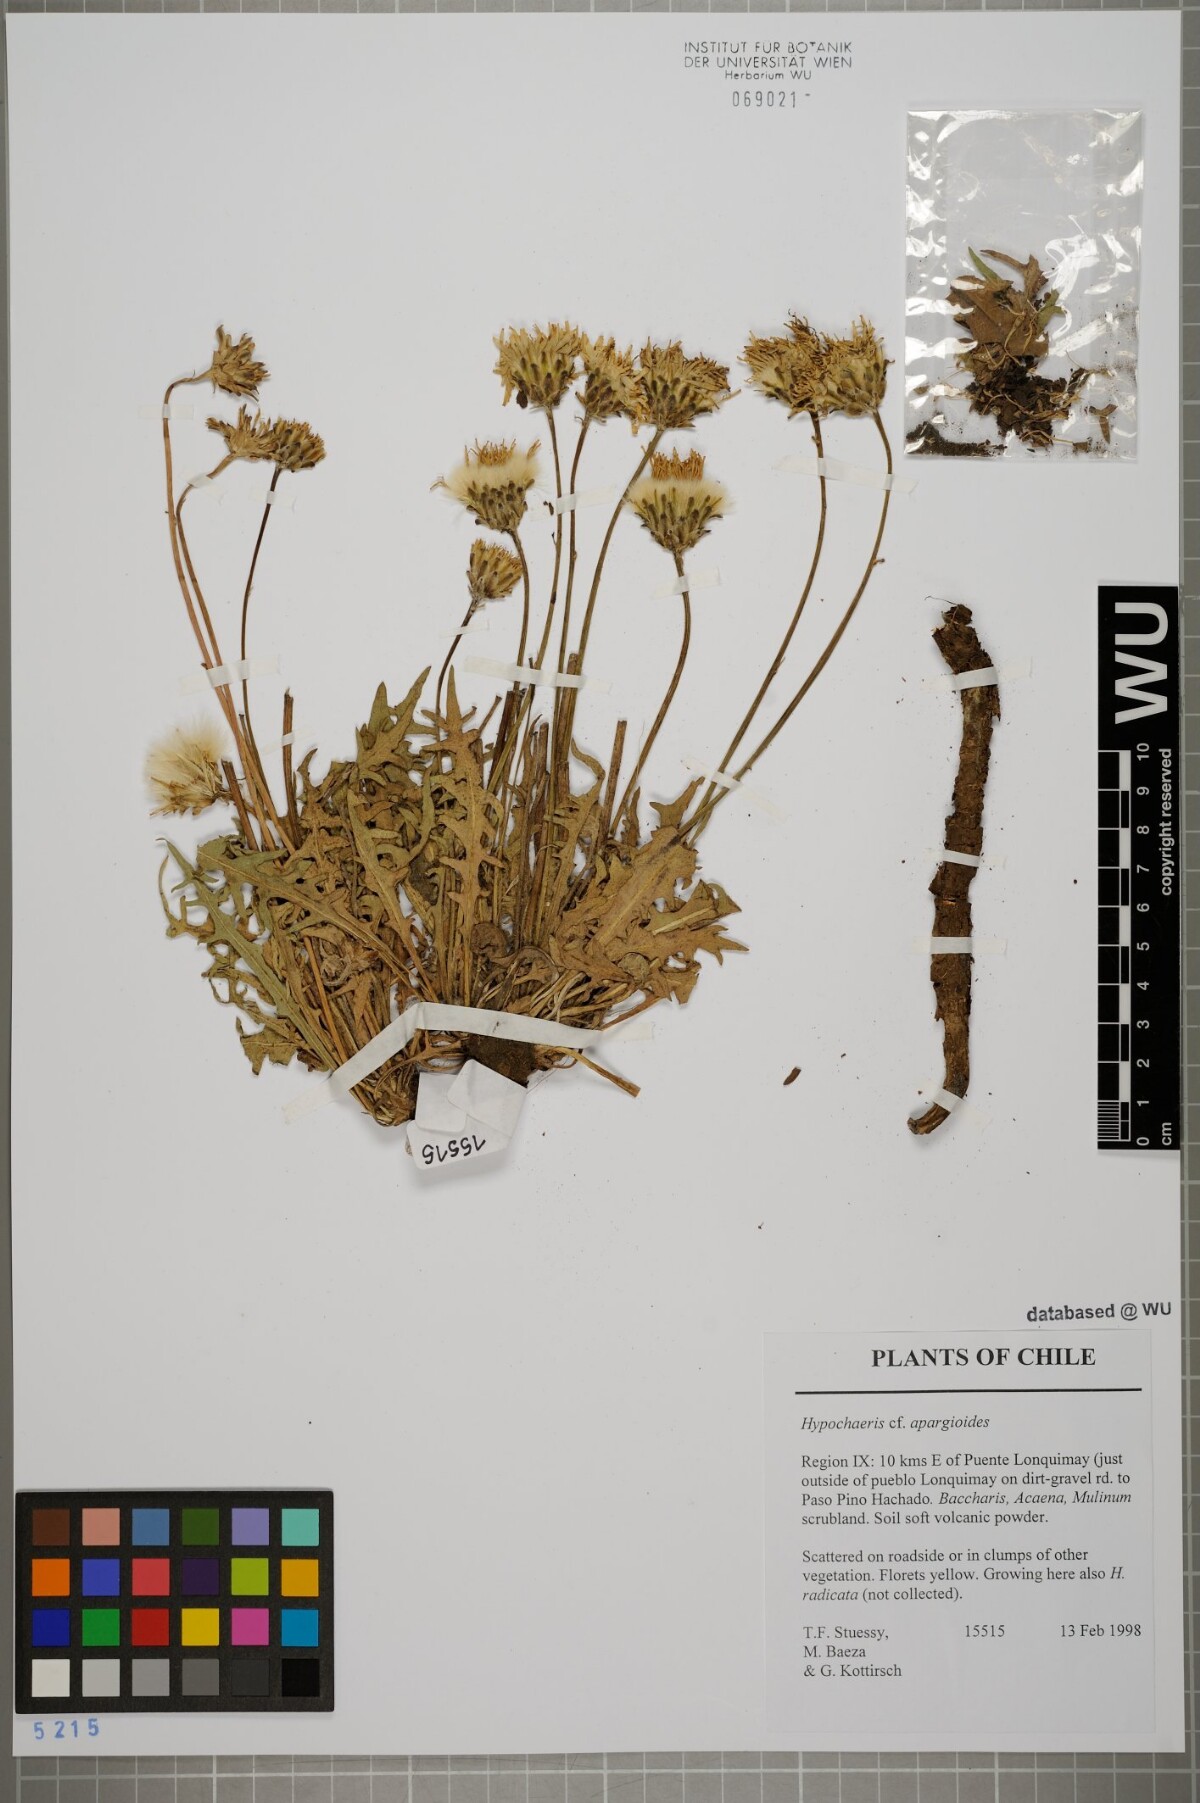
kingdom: Plantae
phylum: Tracheophyta
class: Magnoliopsida
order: Asterales
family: Asteraceae
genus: Hypochaeris
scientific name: Hypochaeris apargioides
